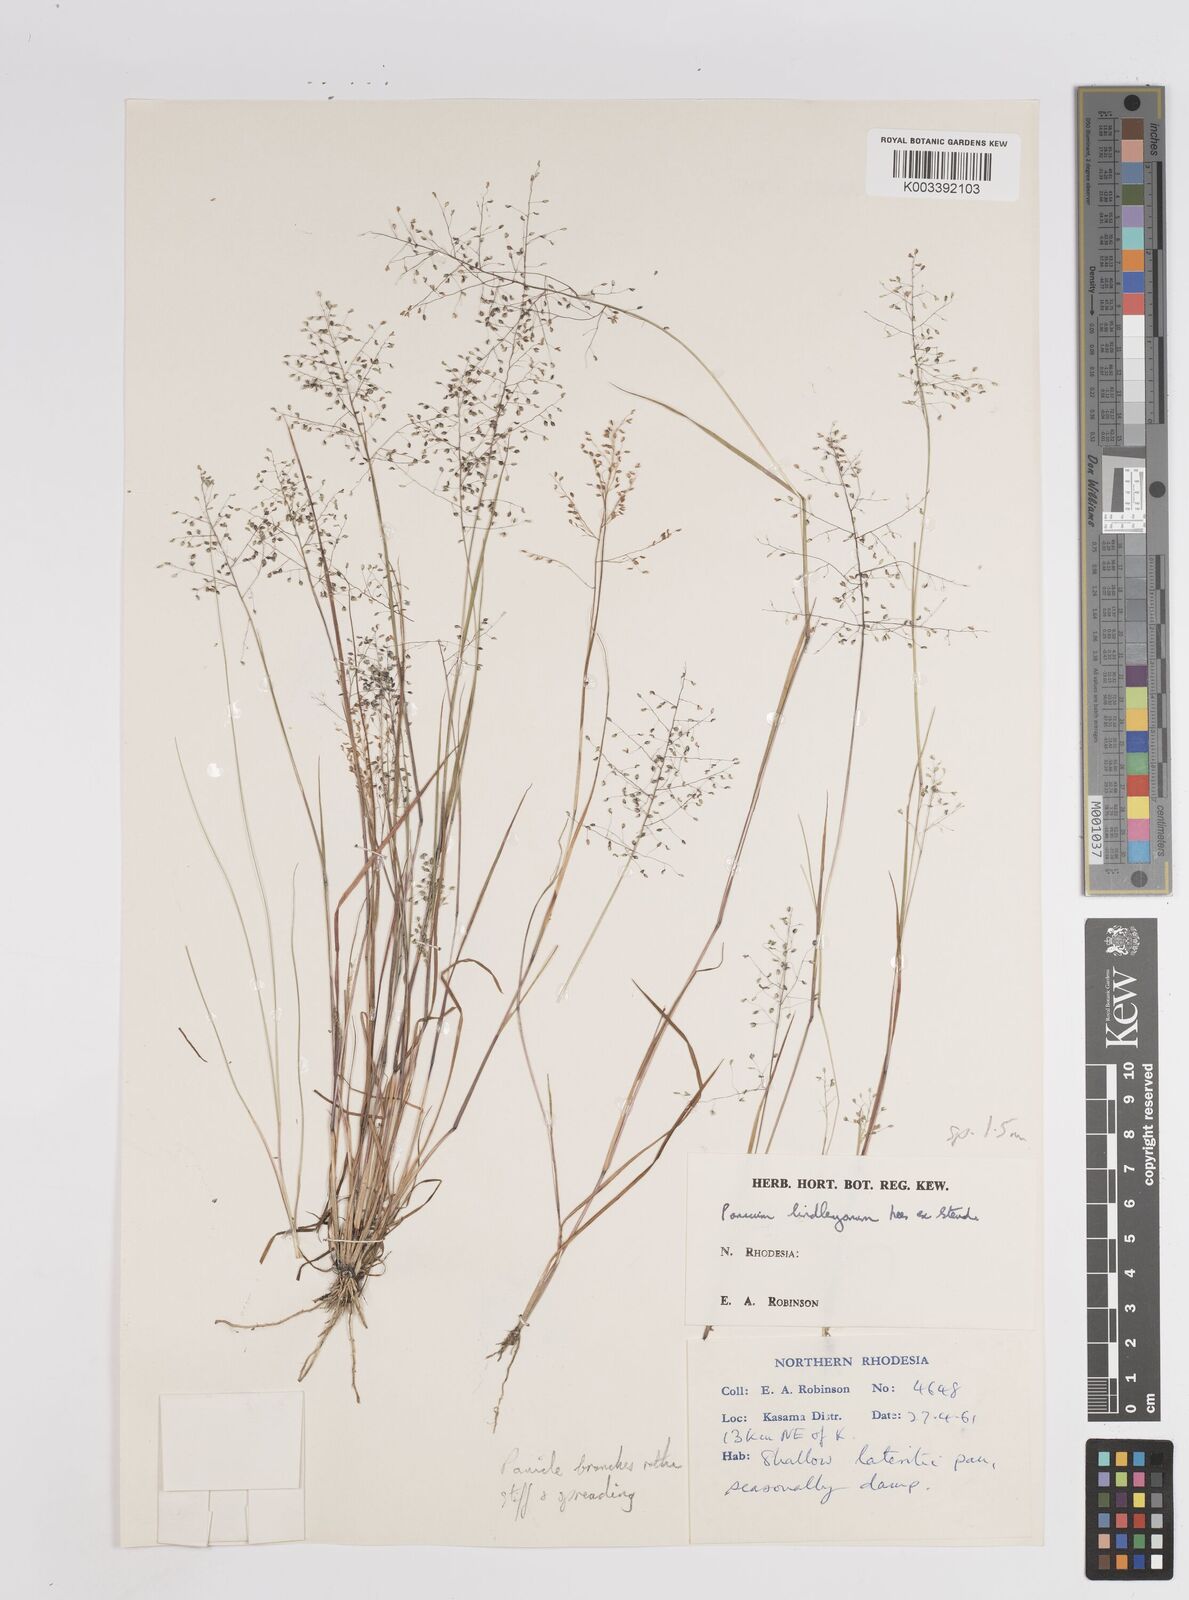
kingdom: Plantae
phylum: Tracheophyta
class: Liliopsida
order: Poales
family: Poaceae
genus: Trichanthecium
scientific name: Trichanthecium tenellum
